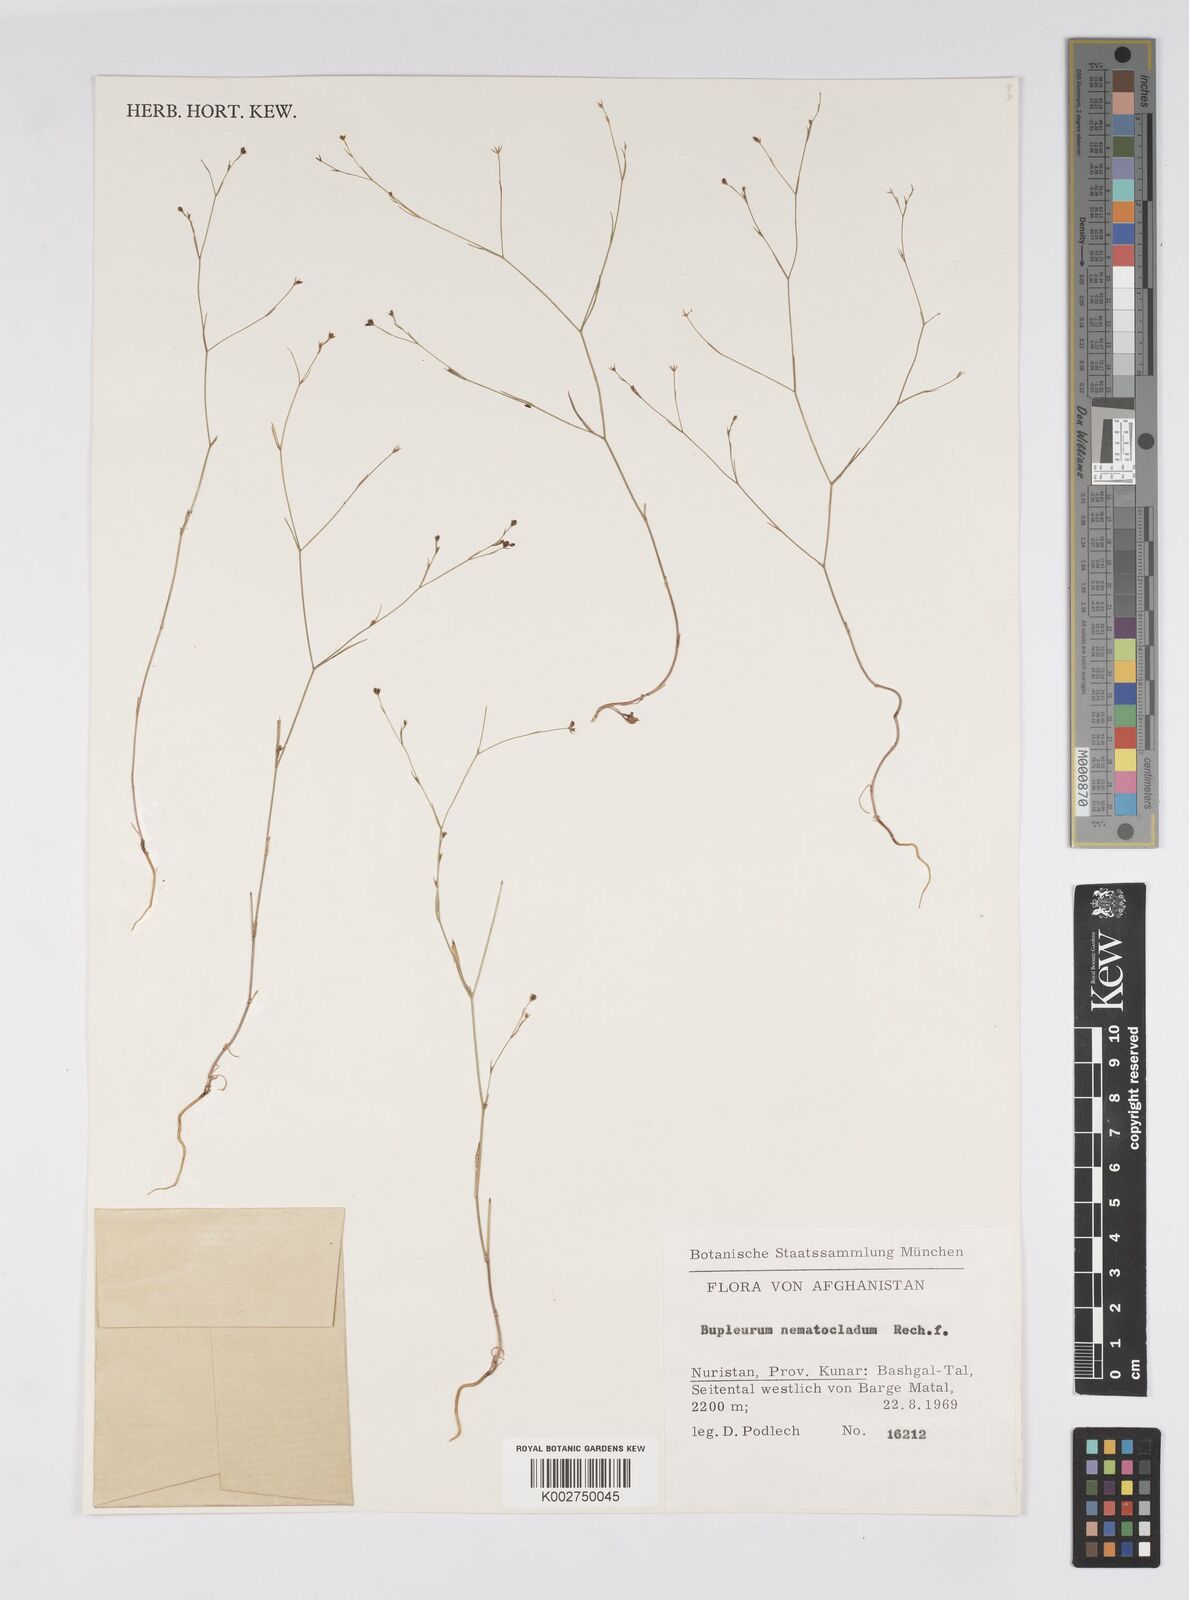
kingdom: Plantae
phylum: Tracheophyta
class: Magnoliopsida
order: Apiales
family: Apiaceae
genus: Bupleurum
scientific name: Bupleurum subuniflorum
